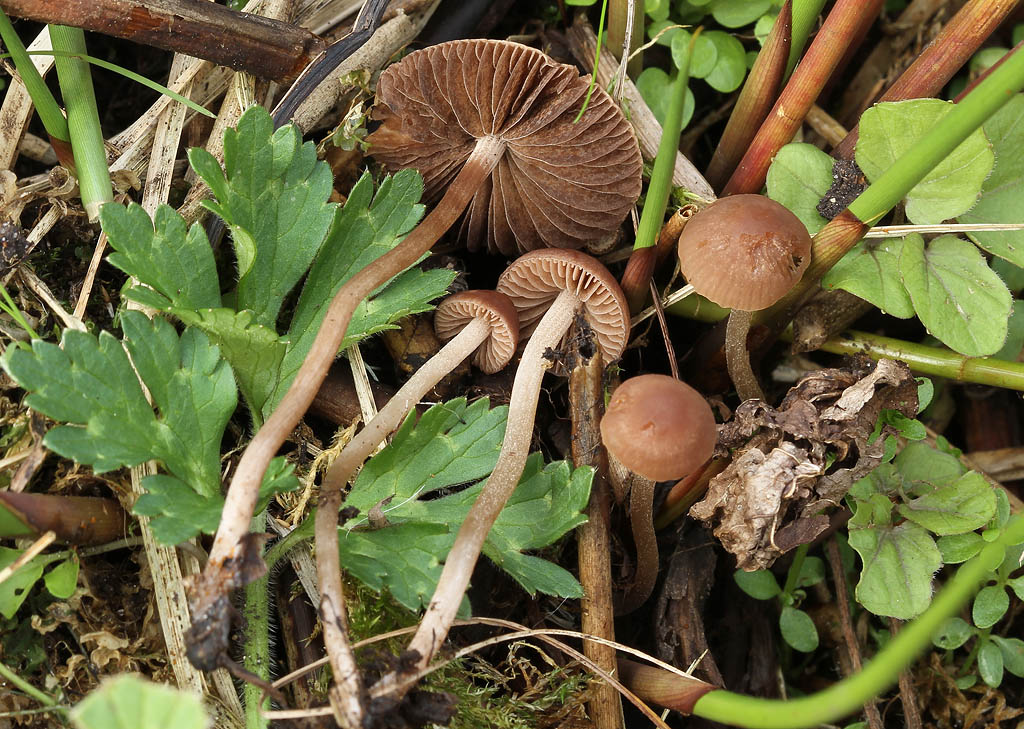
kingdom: Fungi
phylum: Basidiomycota
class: Agaricomycetes
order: Agaricales
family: Bolbitiaceae
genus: Panaeolina
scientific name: Panaeolina foenisecii
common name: høslætsvamp
